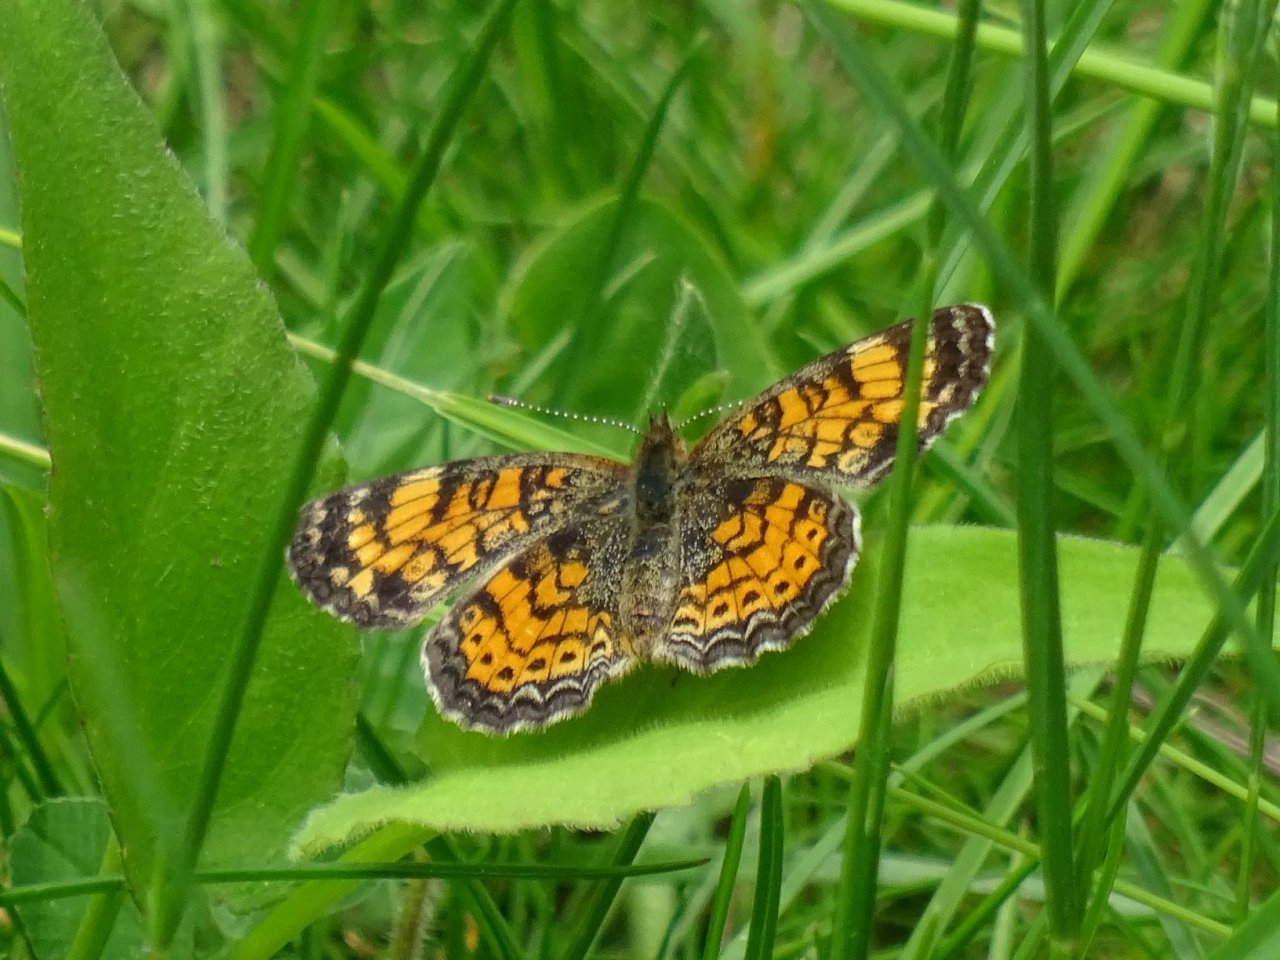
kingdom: Animalia
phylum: Arthropoda
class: Insecta
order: Lepidoptera
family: Nymphalidae
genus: Phyciodes
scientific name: Phyciodes tharos
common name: Pearl Crescent
